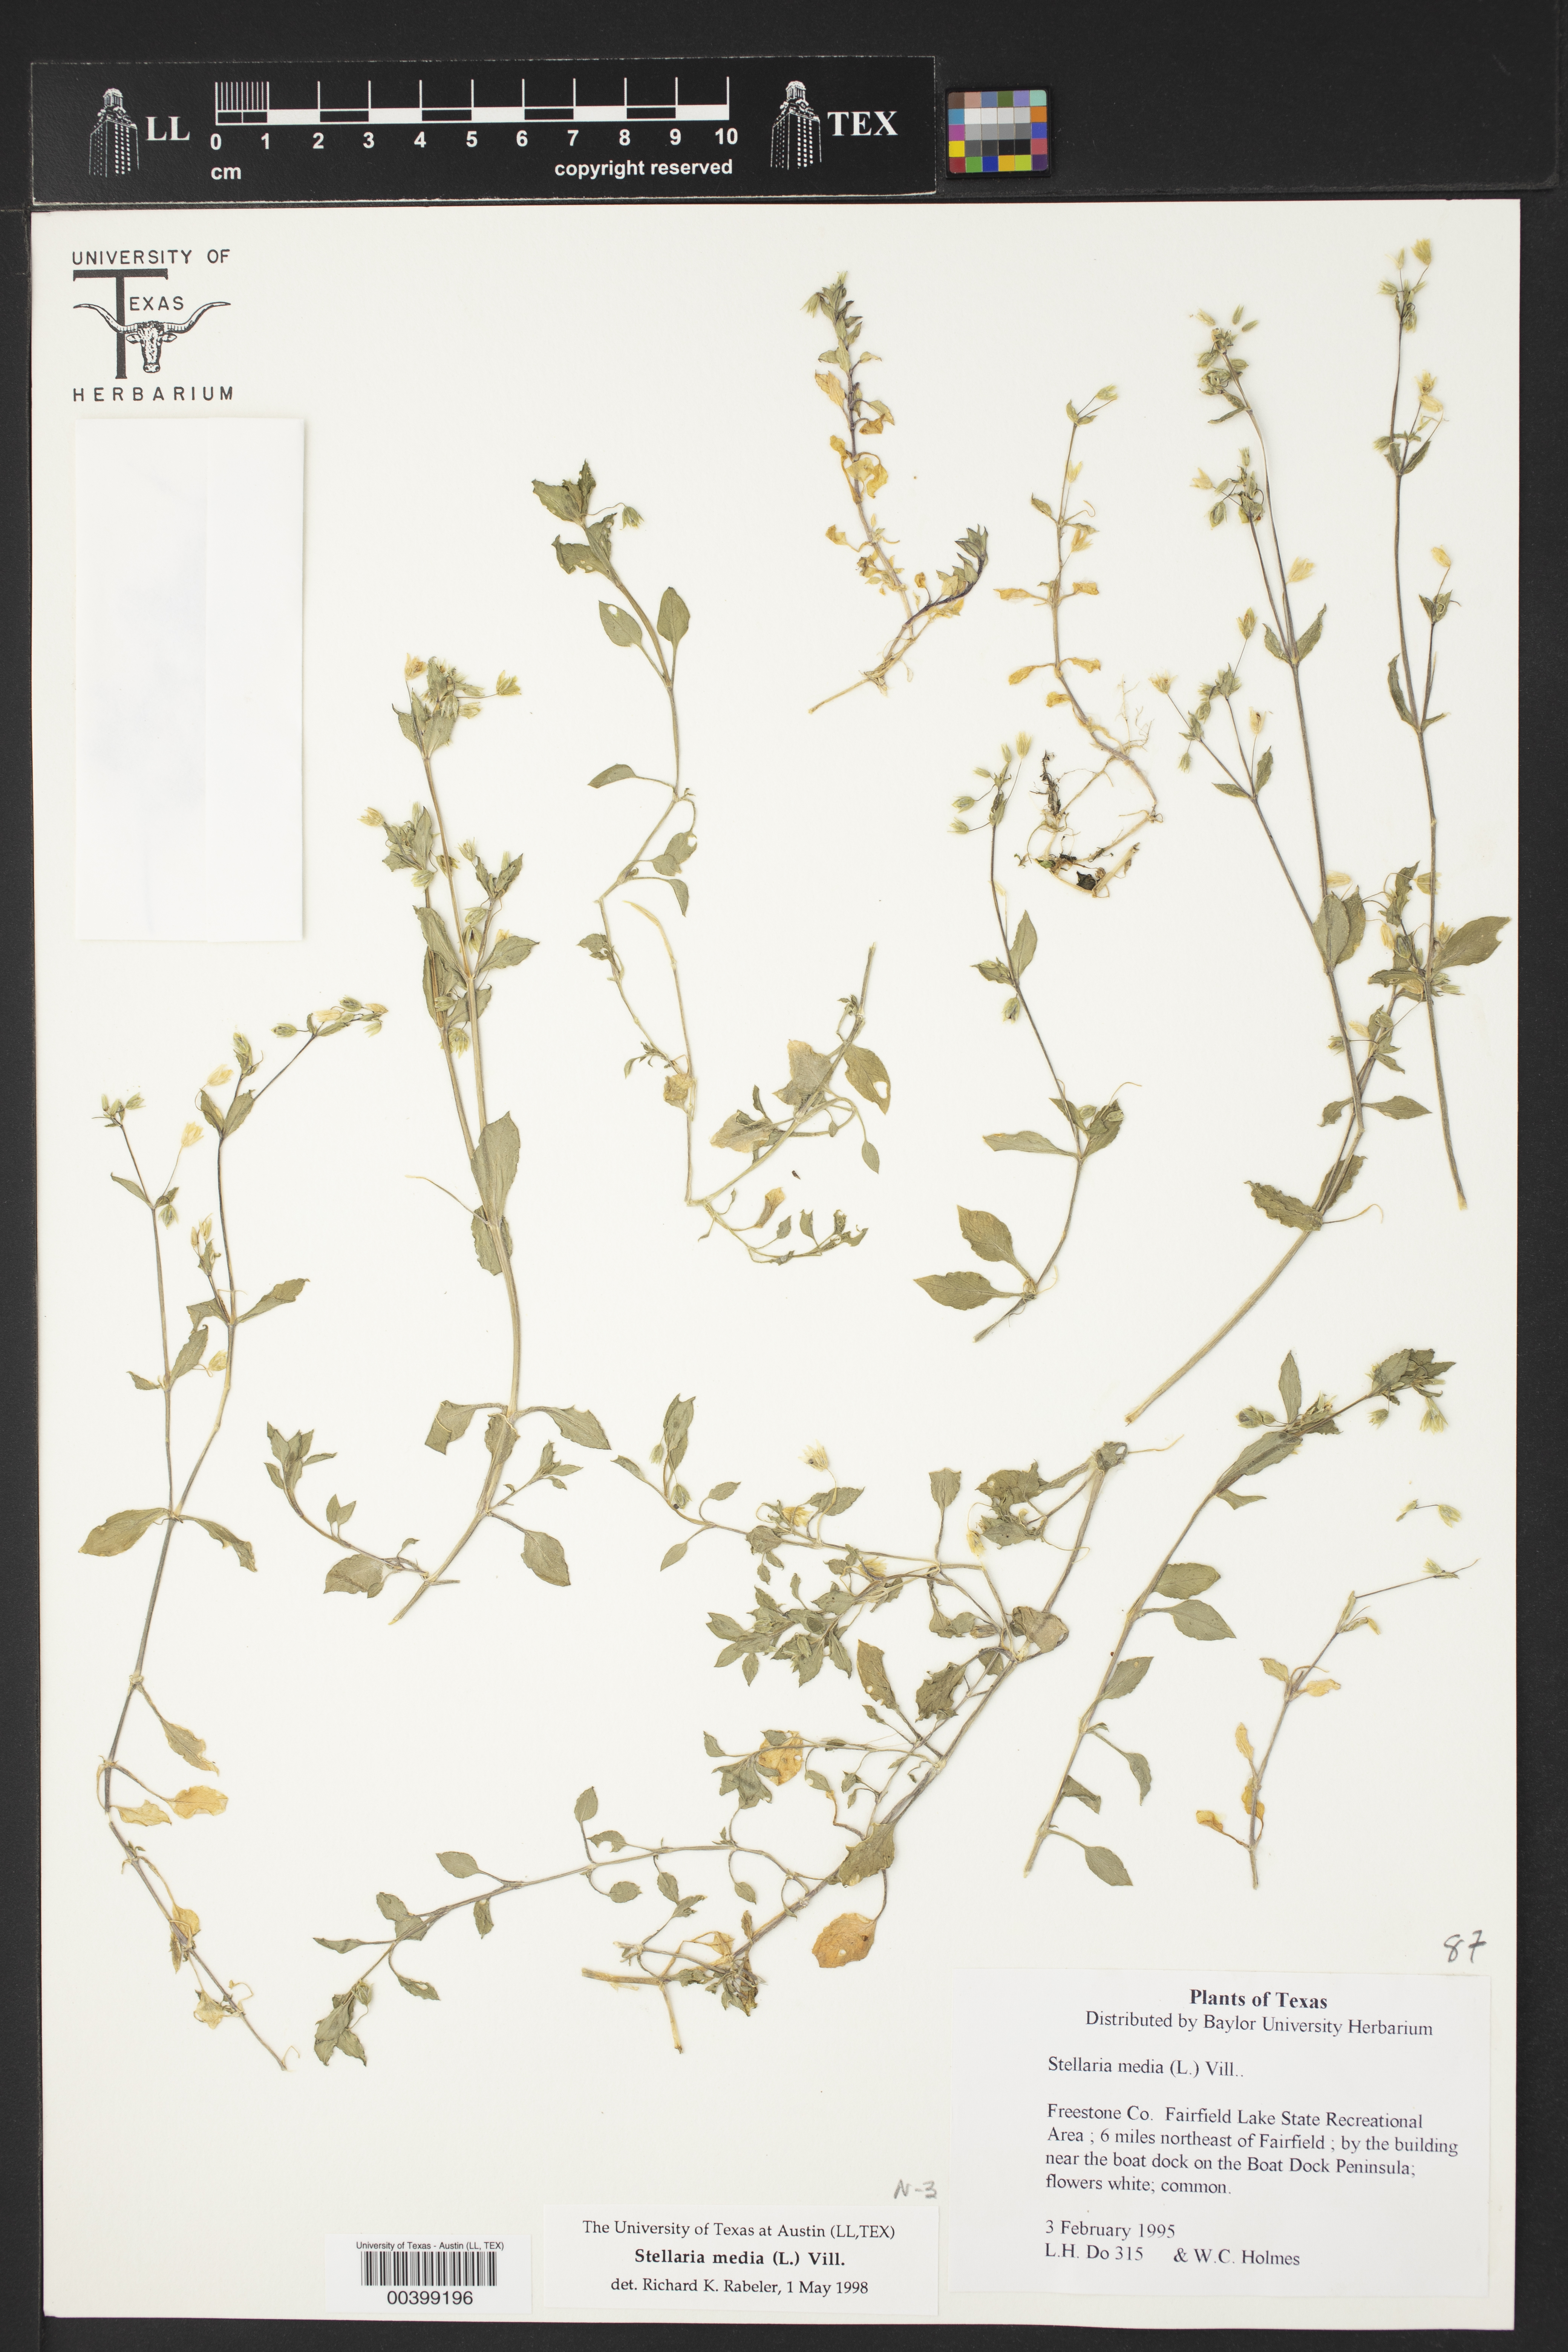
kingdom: Plantae
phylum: Tracheophyta
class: Magnoliopsida
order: Caryophyllales
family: Caryophyllaceae
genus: Stellaria
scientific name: Stellaria media
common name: Common chickweed
